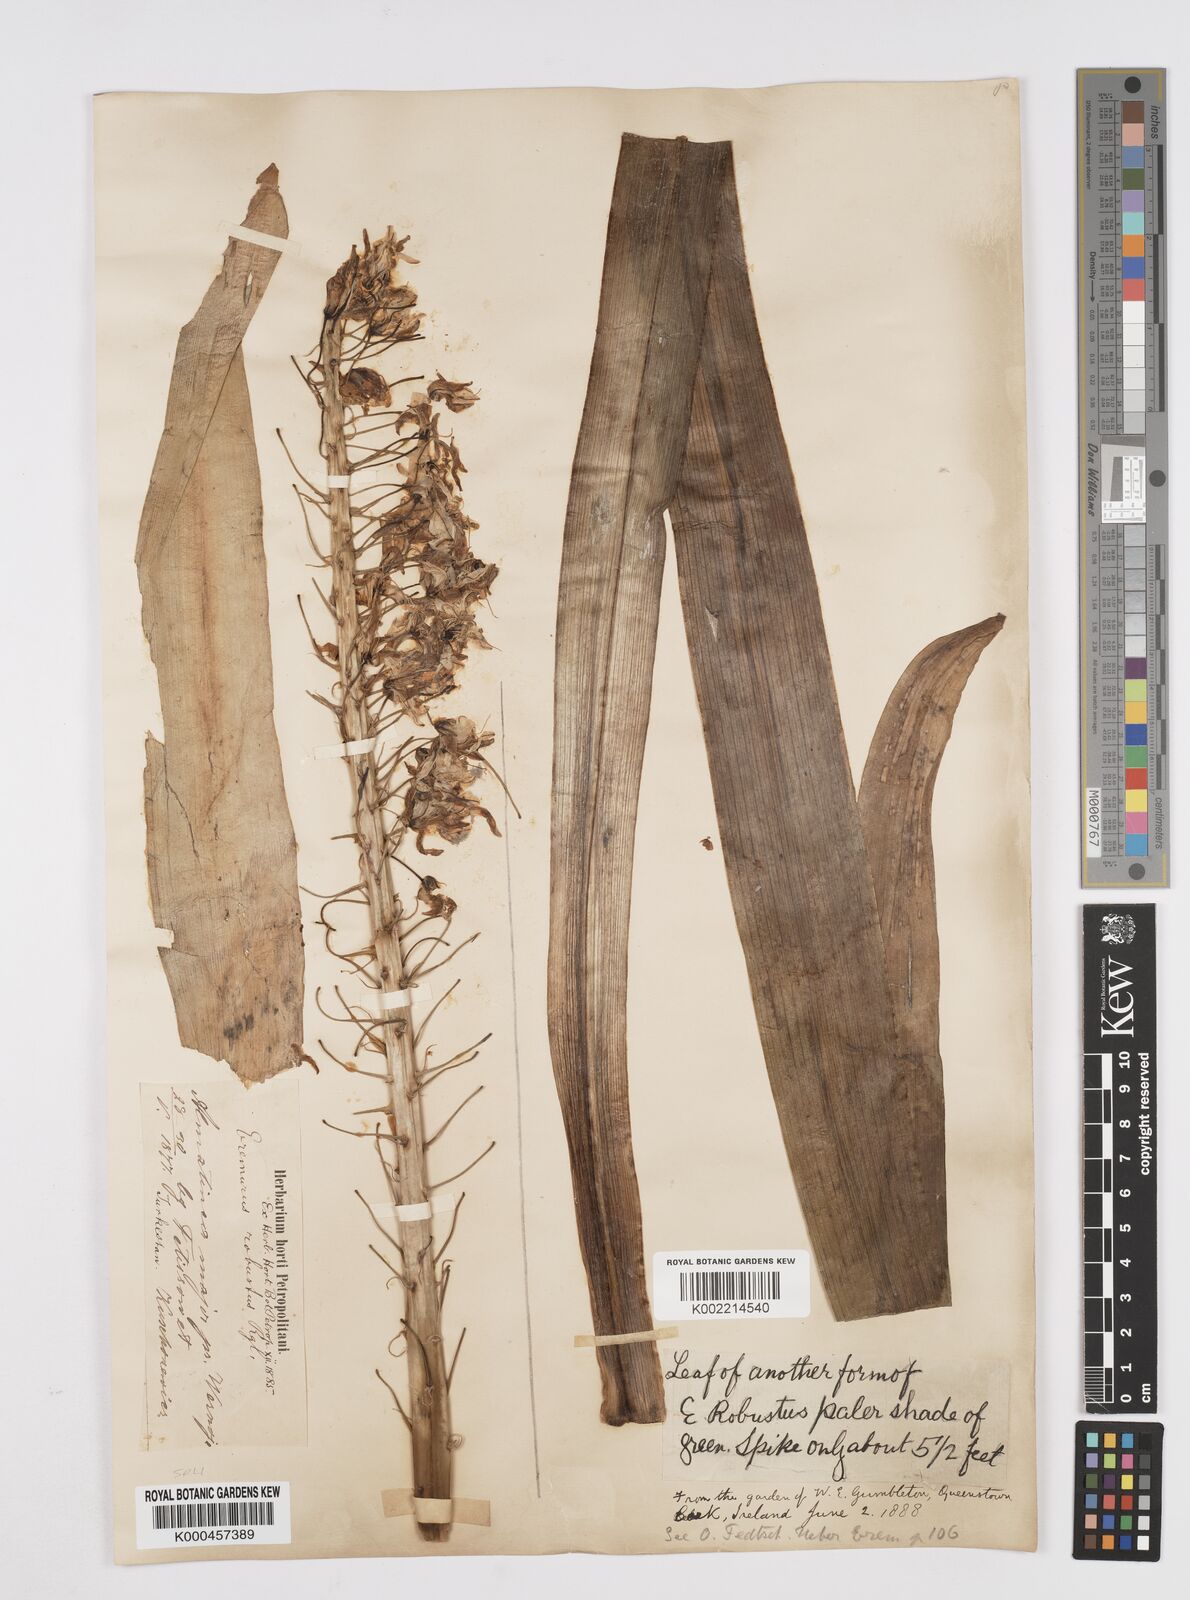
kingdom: Plantae
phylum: Tracheophyta
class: Liliopsida
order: Asparagales
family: Asphodelaceae
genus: Eremurus
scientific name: Eremurus robustus
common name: Foxtail lily
